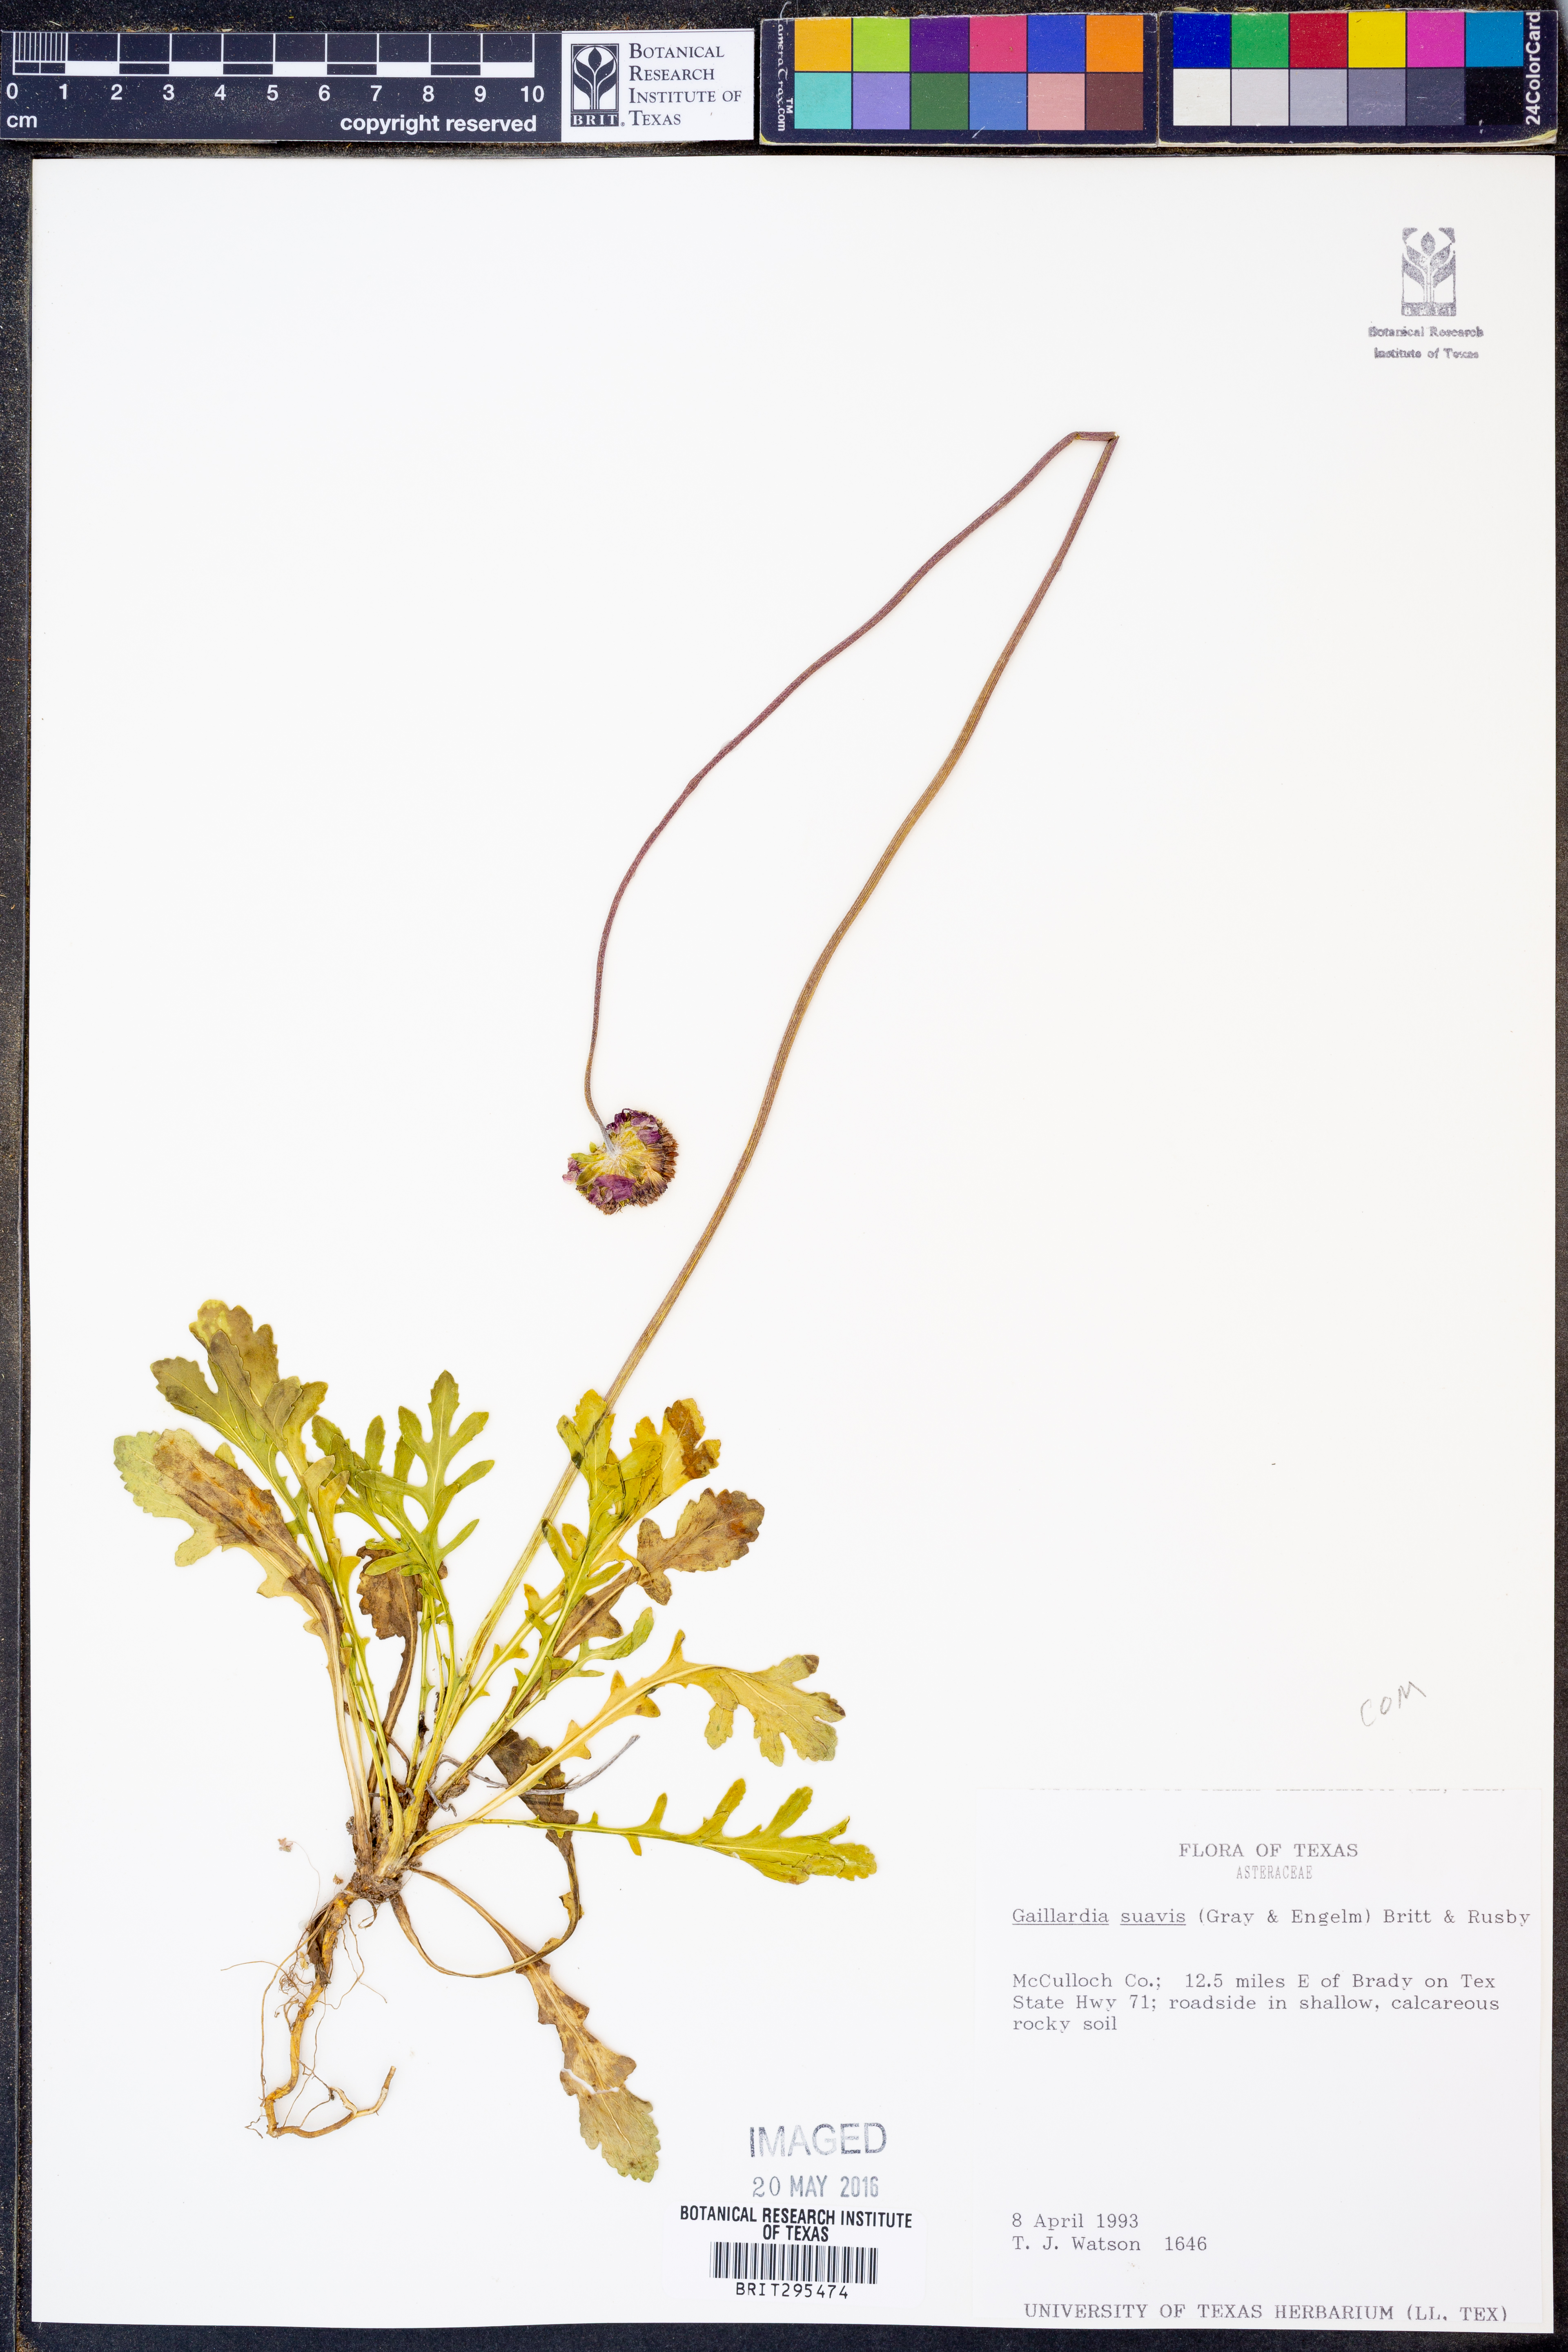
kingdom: Plantae
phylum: Tracheophyta
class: Magnoliopsida
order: Asterales
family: Asteraceae
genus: Gaillardia
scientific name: Gaillardia suavis
